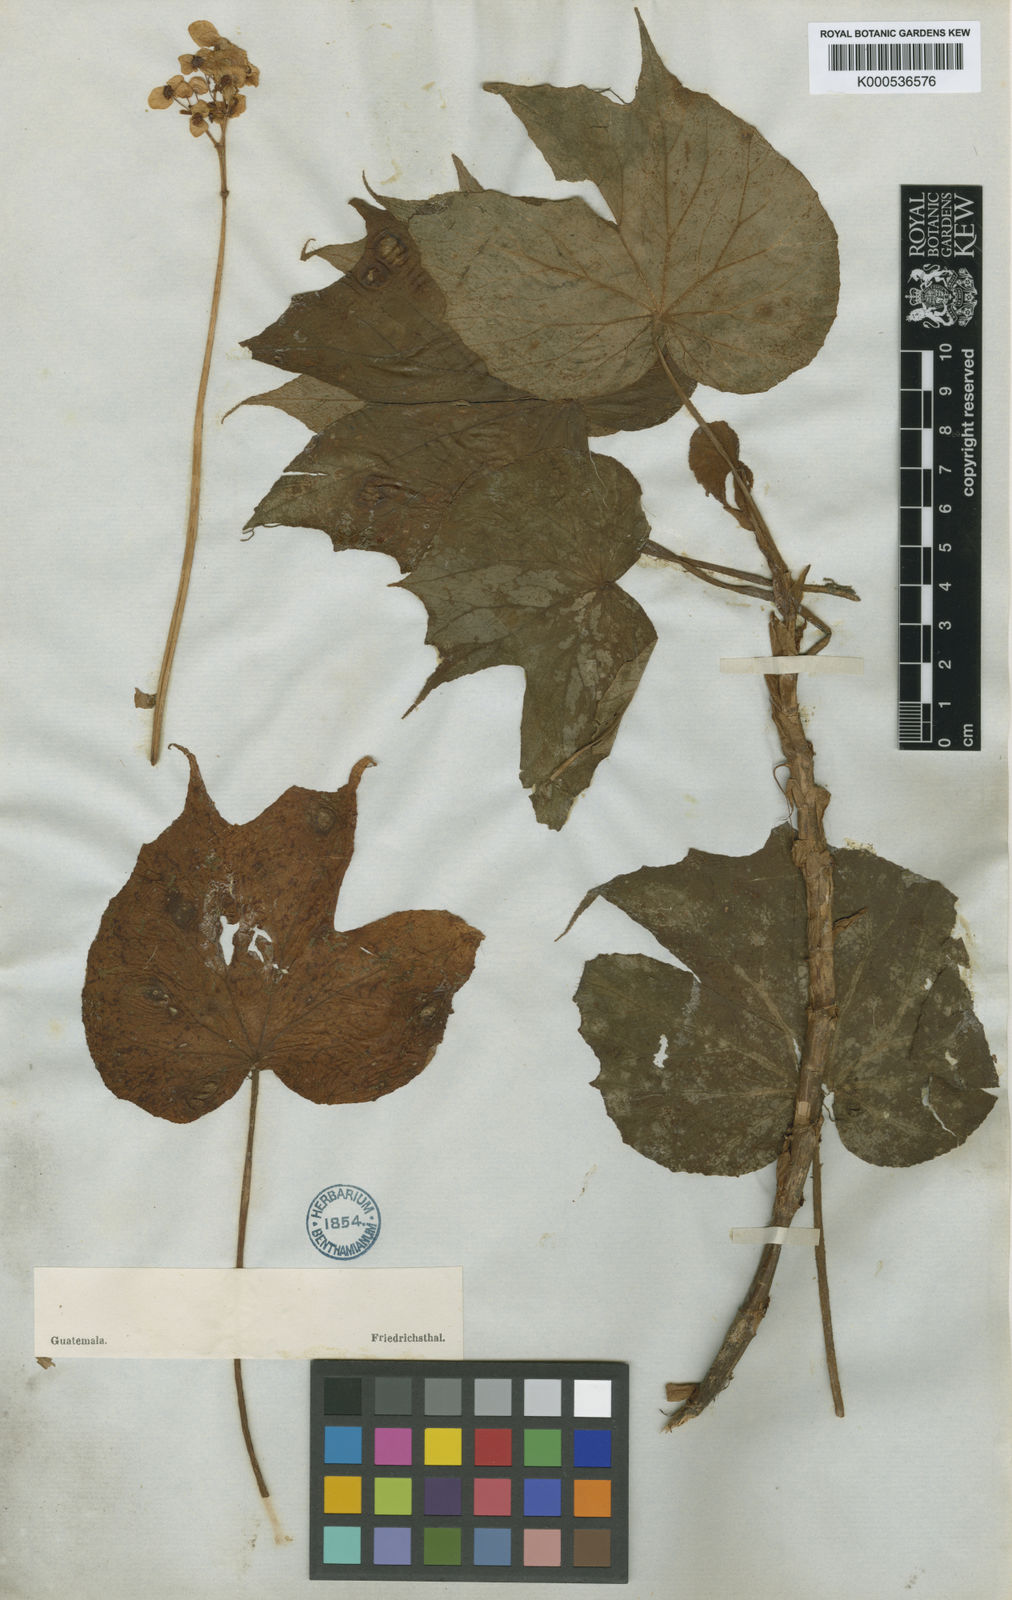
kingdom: Plantae
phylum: Tracheophyta
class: Magnoliopsida
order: Cucurbitales
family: Begoniaceae
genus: Begonia
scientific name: Begonia
